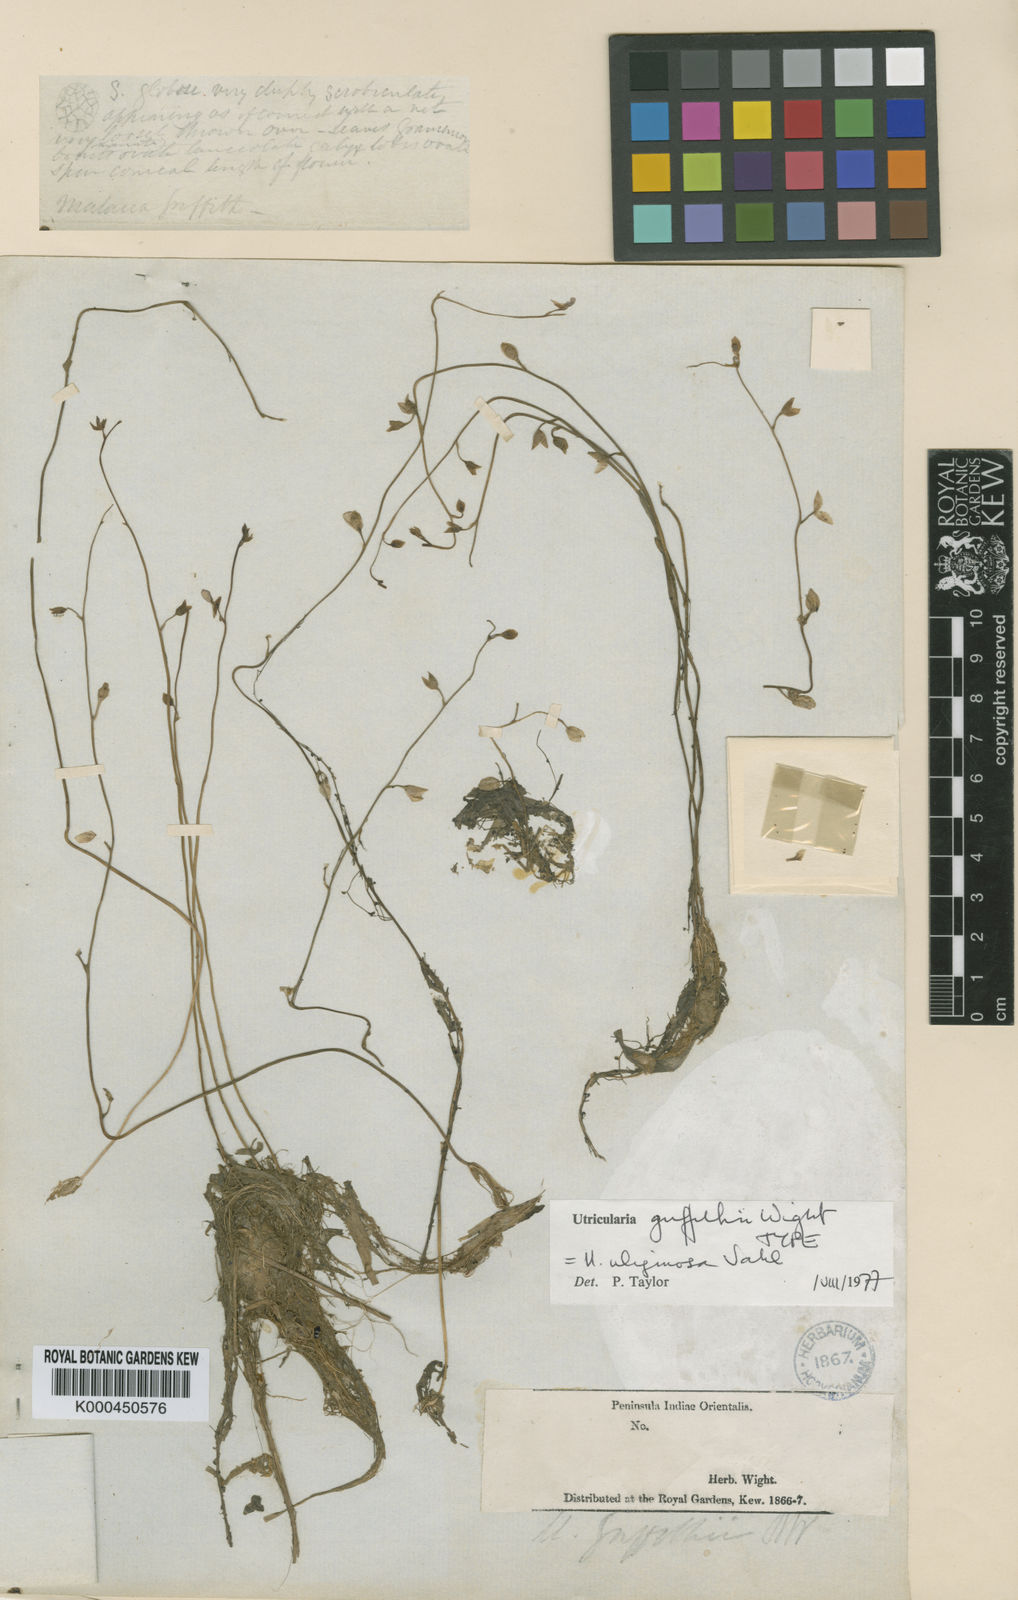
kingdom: Plantae
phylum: Tracheophyta
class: Magnoliopsida
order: Lamiales
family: Lentibulariaceae
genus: Utricularia
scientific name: Utricularia uliginosa
